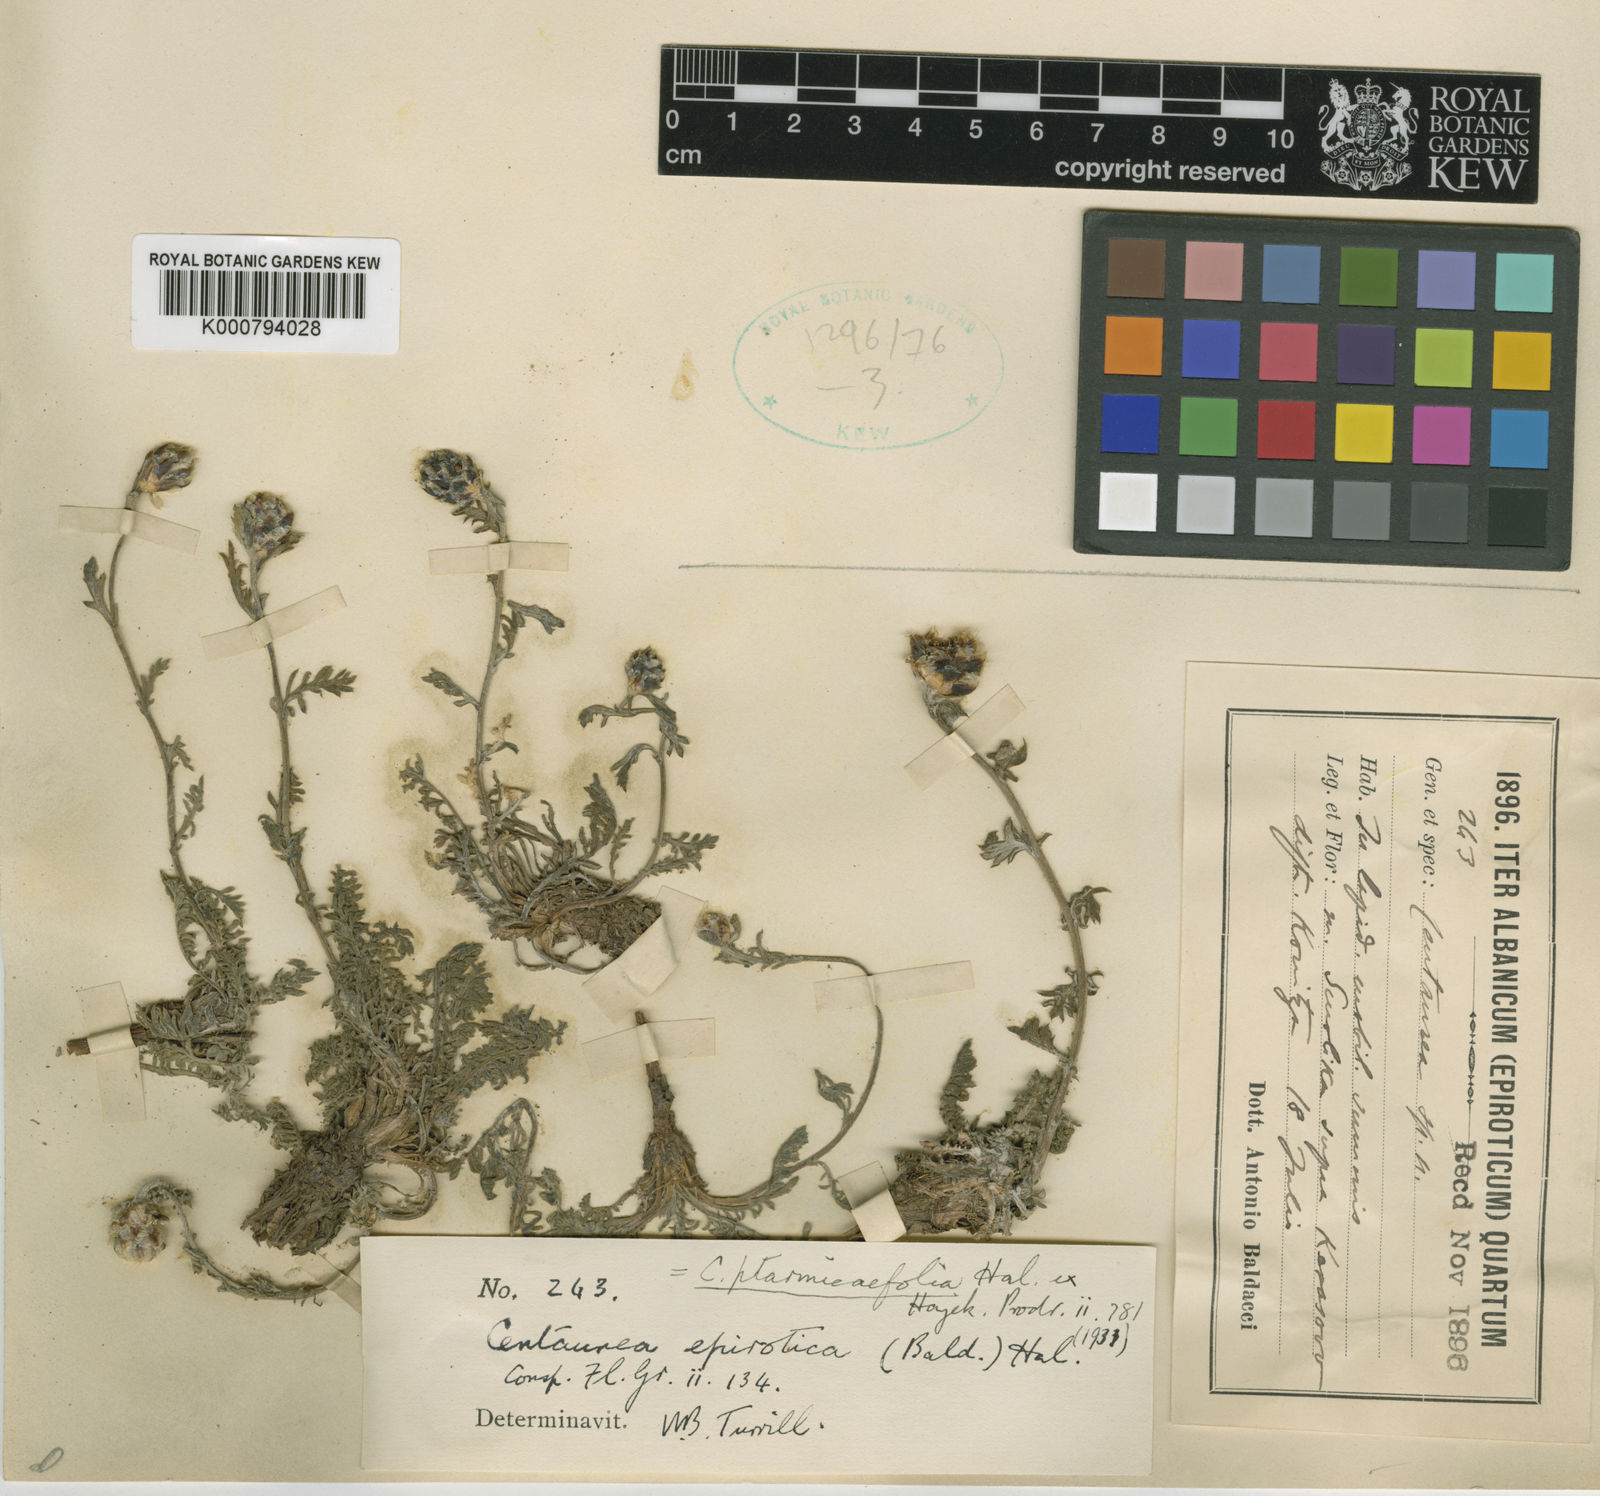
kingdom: Plantae
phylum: Tracheophyta
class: Magnoliopsida
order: Asterales
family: Asteraceae
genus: Centaurea
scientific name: Centaurea alba
